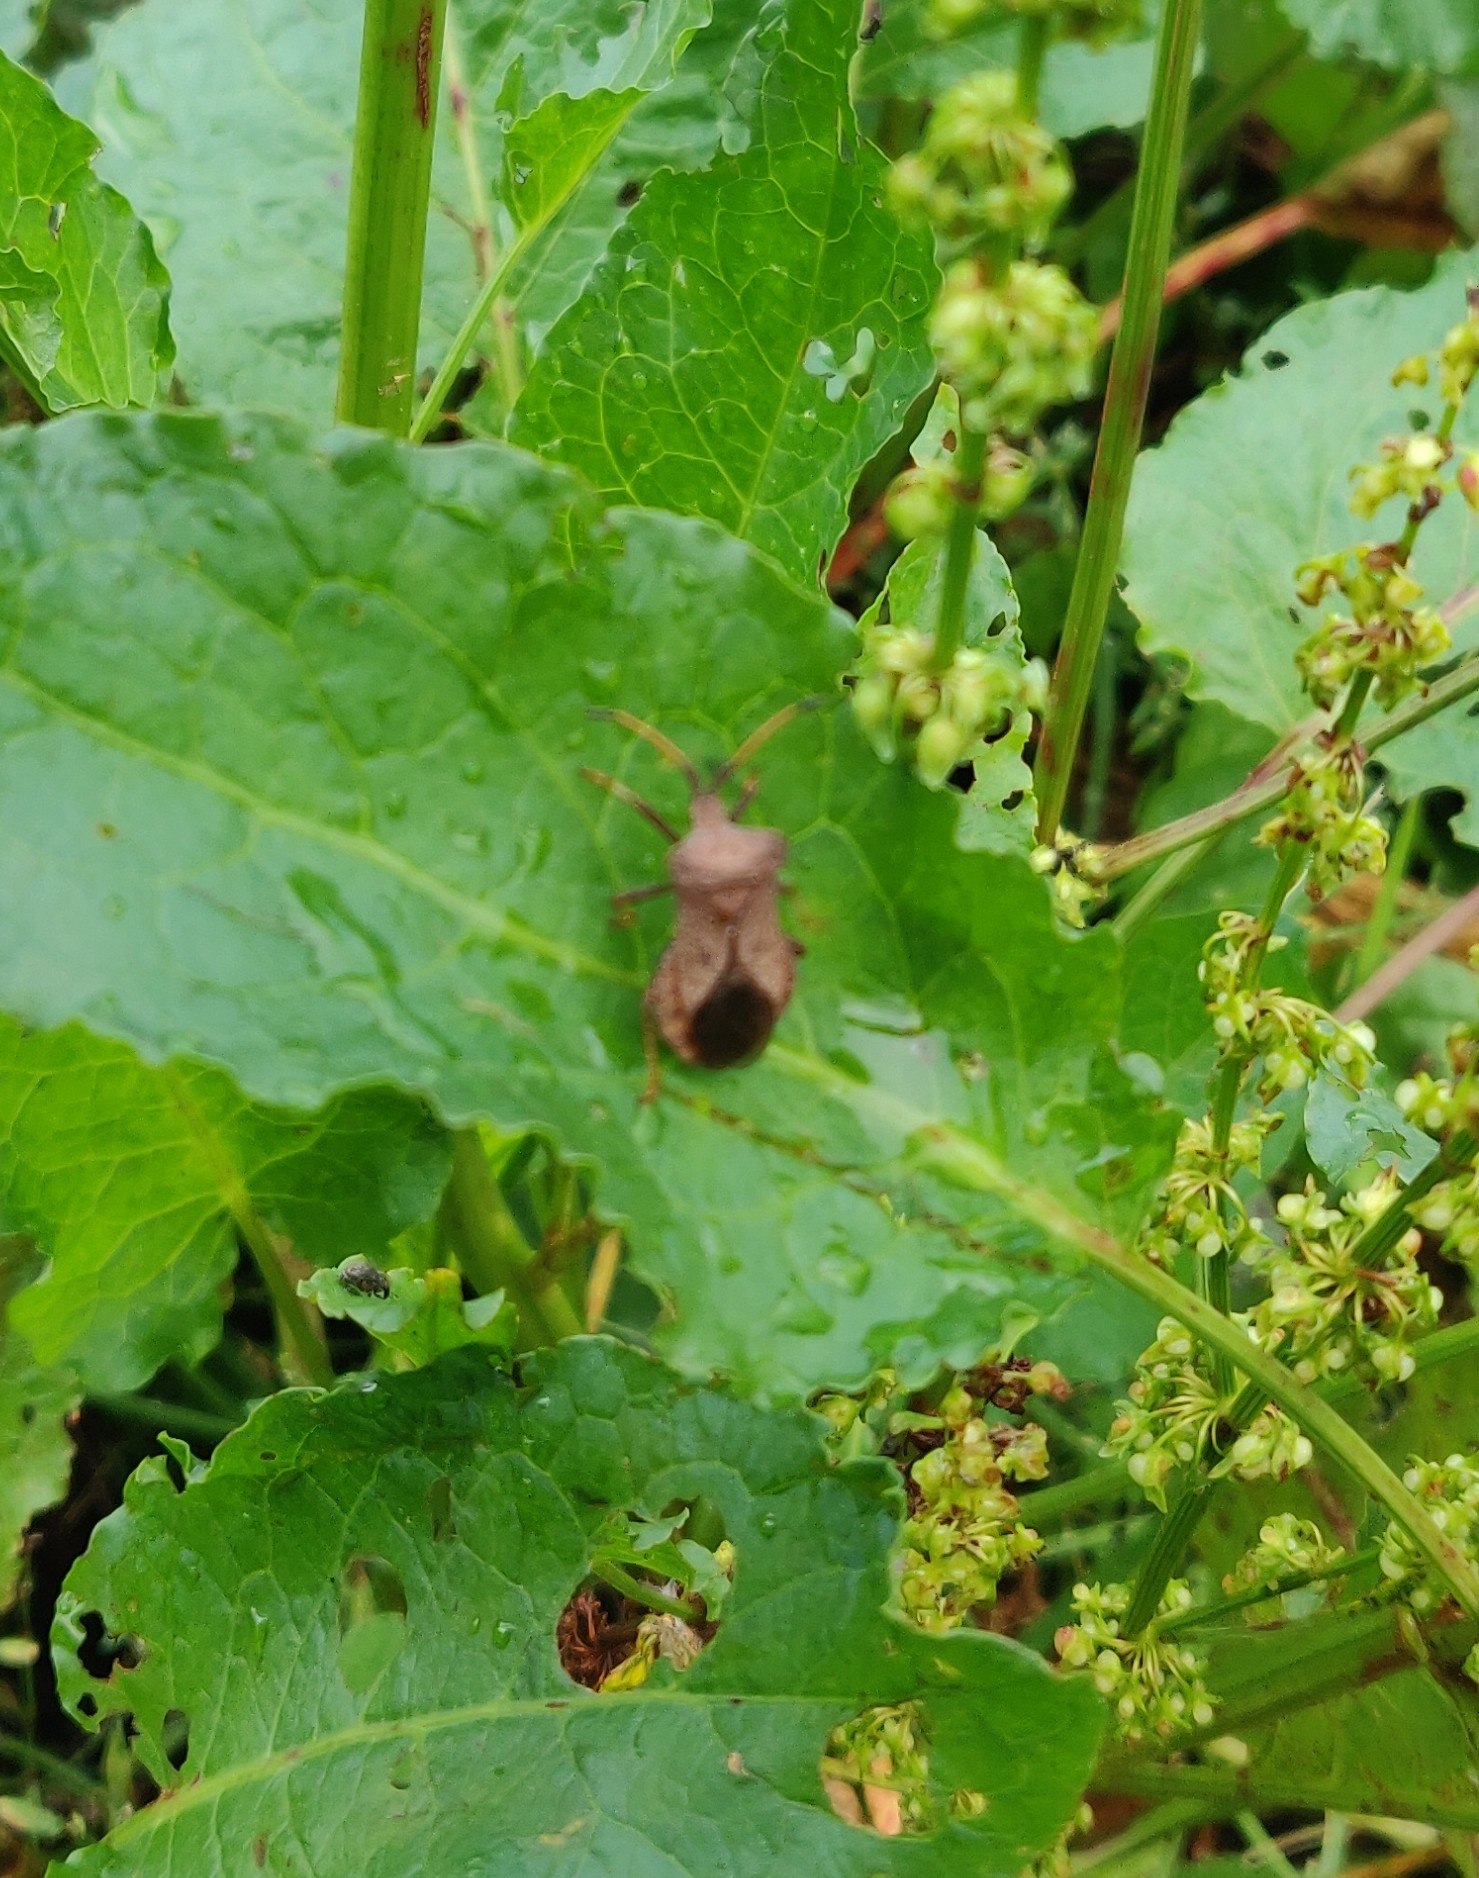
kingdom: Animalia
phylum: Arthropoda
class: Insecta
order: Hemiptera
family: Coreidae
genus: Coreus
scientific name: Coreus marginatus
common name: Skræppetæge
